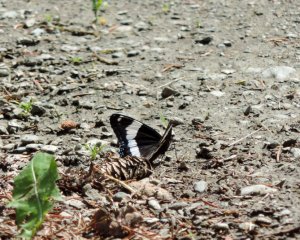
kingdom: Animalia
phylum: Arthropoda
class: Insecta
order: Lepidoptera
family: Nymphalidae
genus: Limenitis
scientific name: Limenitis arthemis
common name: Red-spotted Admiral
